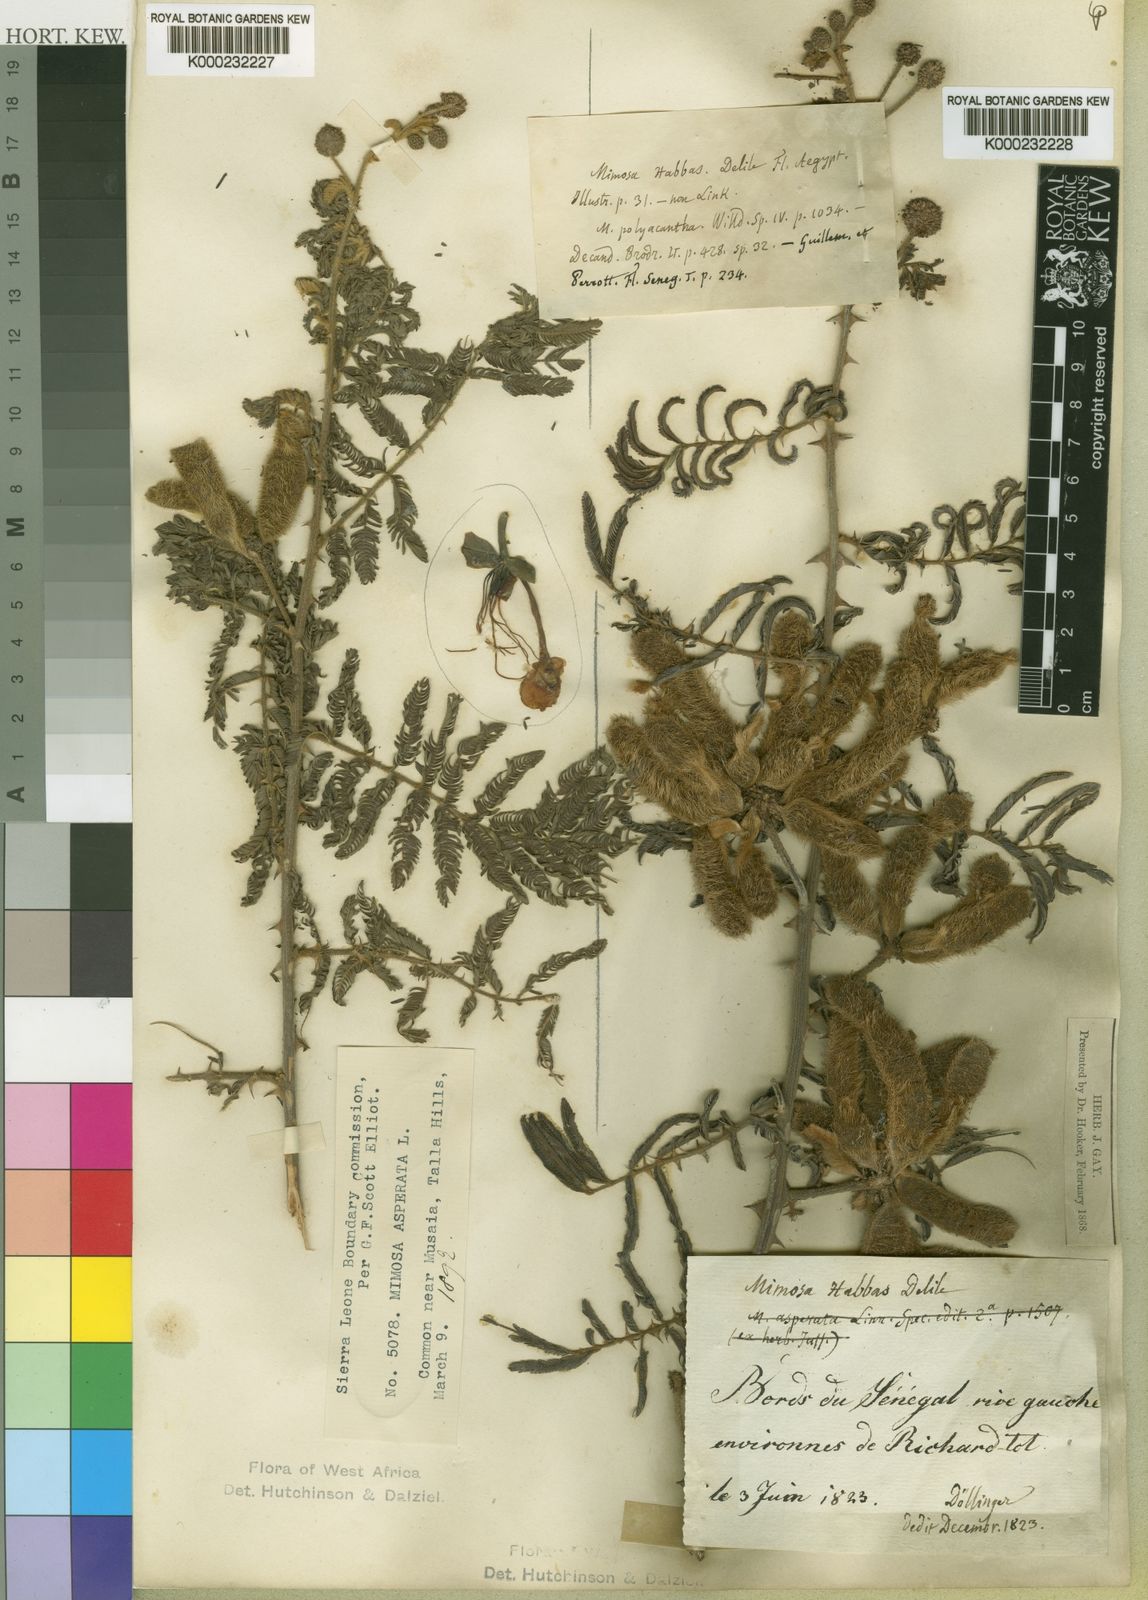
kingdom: Plantae
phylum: Tracheophyta
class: Magnoliopsida
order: Fabales
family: Fabaceae
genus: Mimosa
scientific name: Mimosa pigra
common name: Black mimosa
